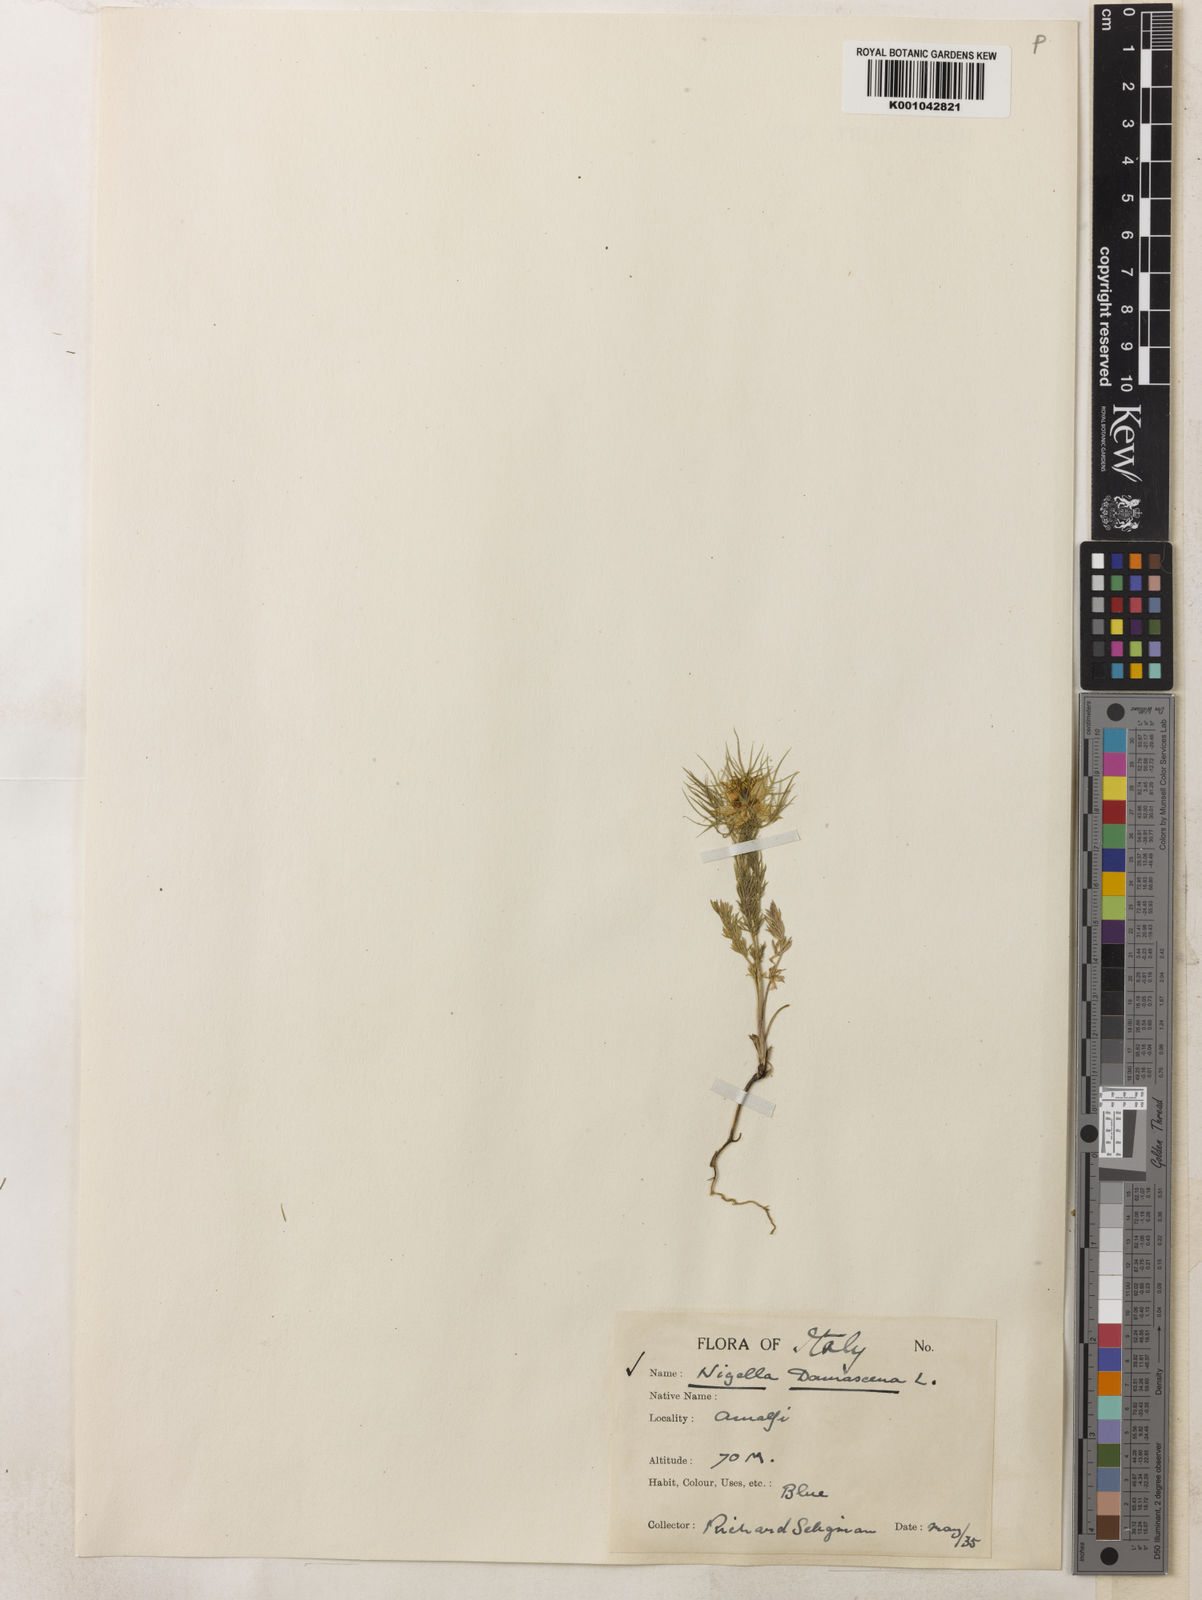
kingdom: Plantae
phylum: Tracheophyta
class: Magnoliopsida
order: Ranunculales
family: Ranunculaceae
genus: Nigella
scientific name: Nigella damascena
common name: Love-in-a-mist
